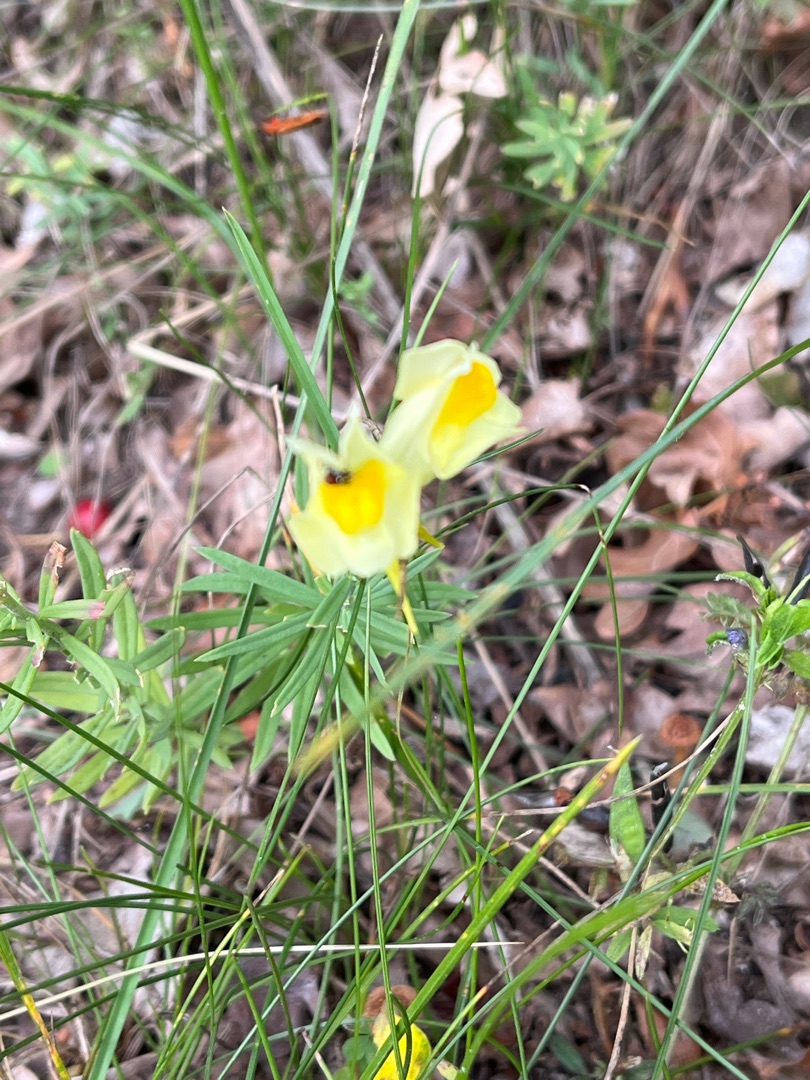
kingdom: Plantae
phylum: Tracheophyta
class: Magnoliopsida
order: Lamiales
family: Plantaginaceae
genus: Linaria
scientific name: Linaria vulgaris
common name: Almindelig torskemund
